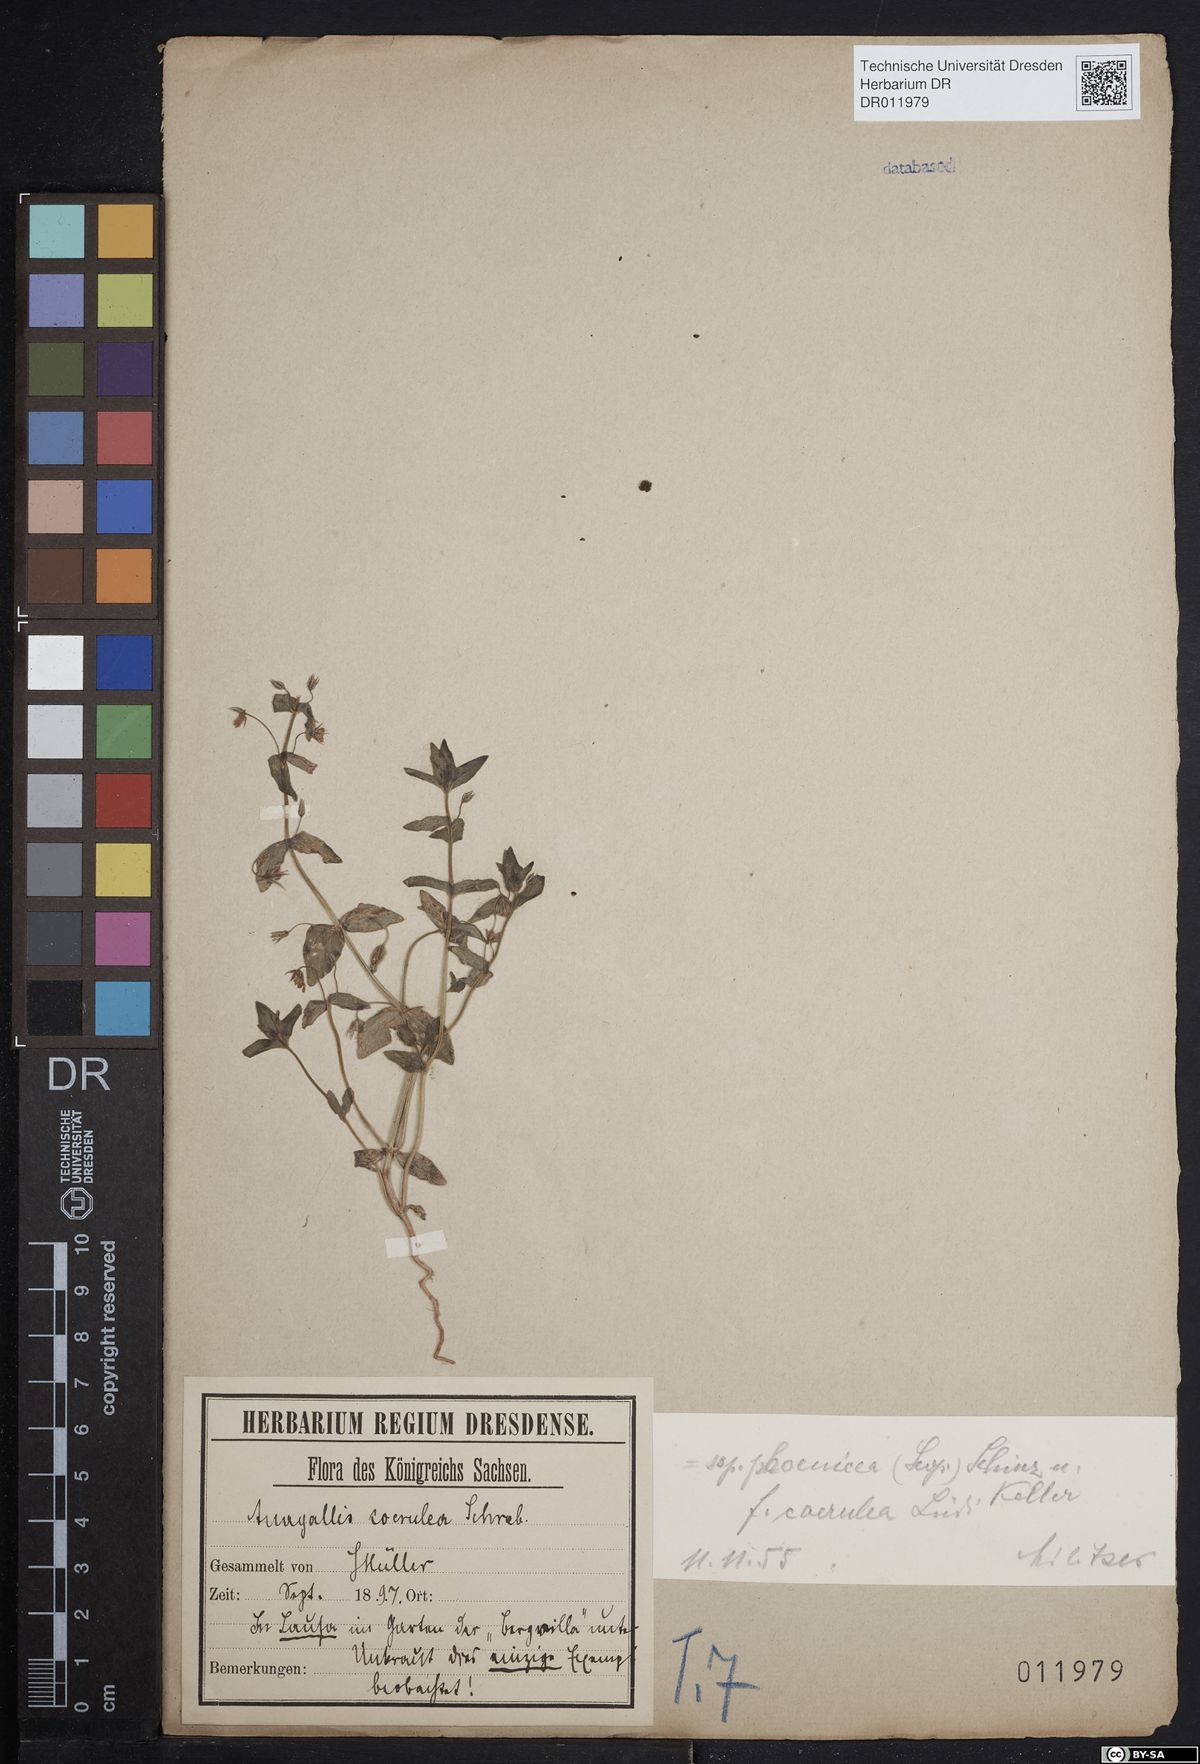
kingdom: Plantae
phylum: Tracheophyta
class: Magnoliopsida
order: Ericales
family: Primulaceae
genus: Lysimachia
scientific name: Lysimachia arvensis
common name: Scarlet pimpernel
